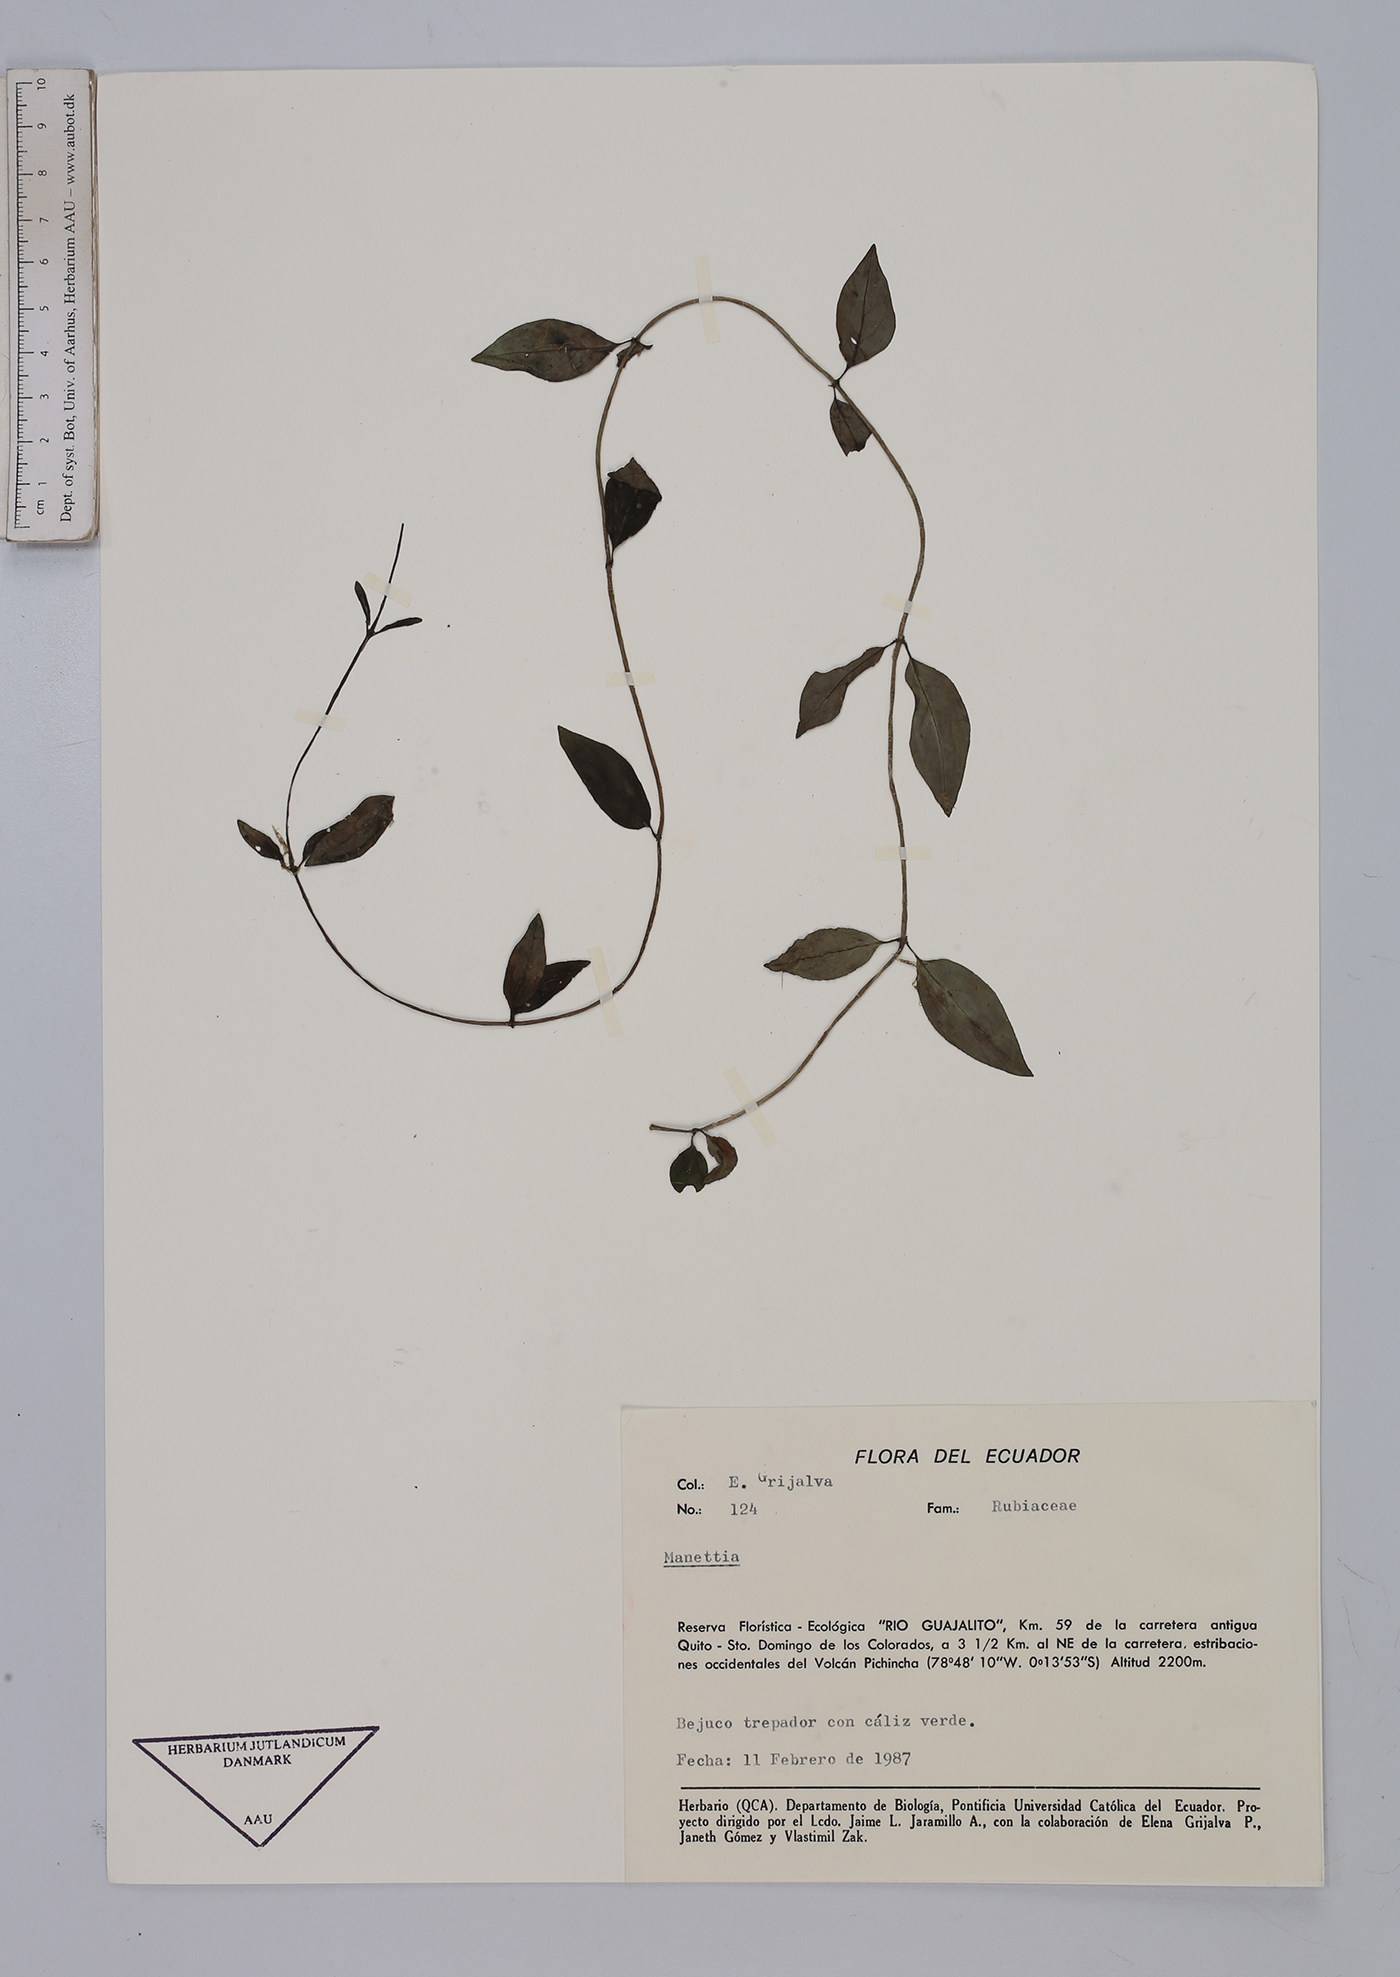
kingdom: Plantae
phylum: Tracheophyta
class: Magnoliopsida
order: Gentianales
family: Rubiaceae
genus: Manettia
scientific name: Manettia
